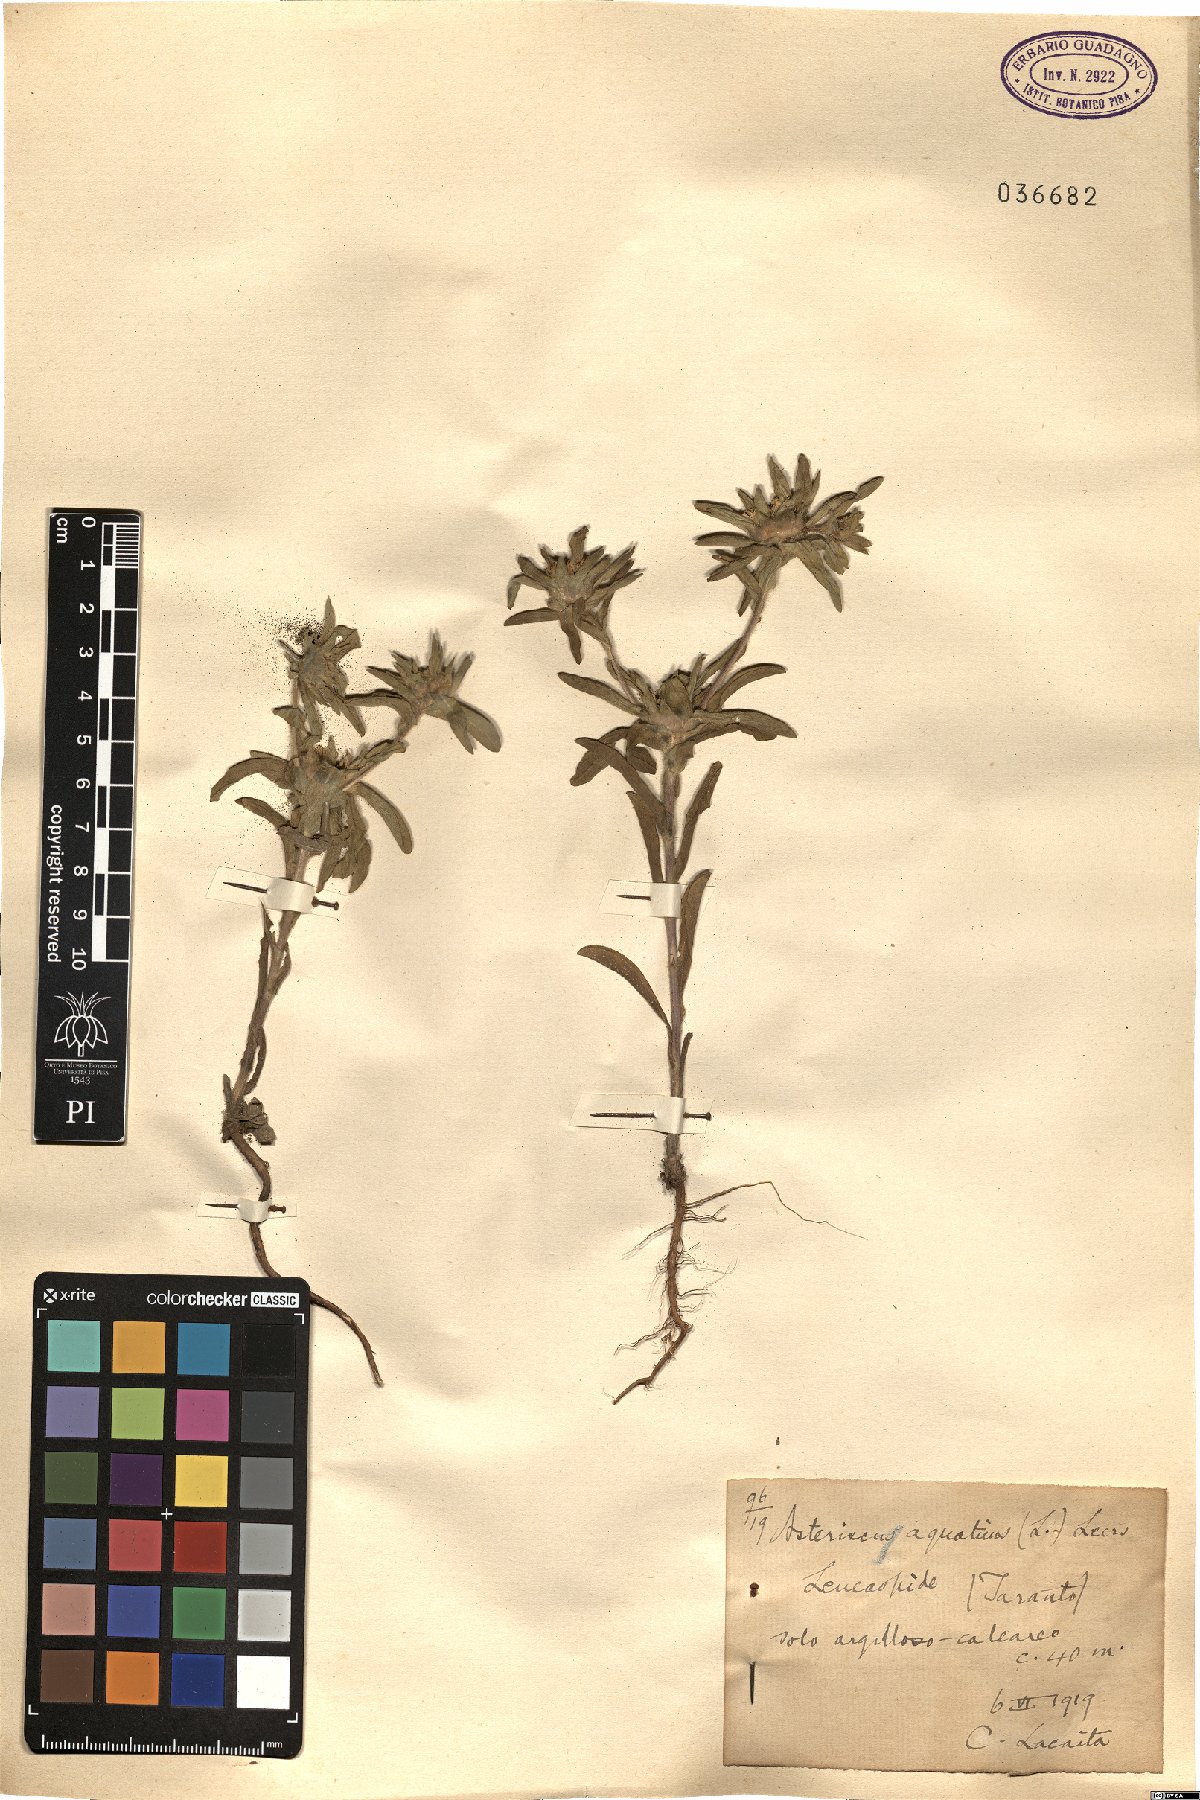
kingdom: Plantae
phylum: Tracheophyta
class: Magnoliopsida
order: Asterales
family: Asteraceae
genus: Asteriscus
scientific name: Asteriscus aquaticus
